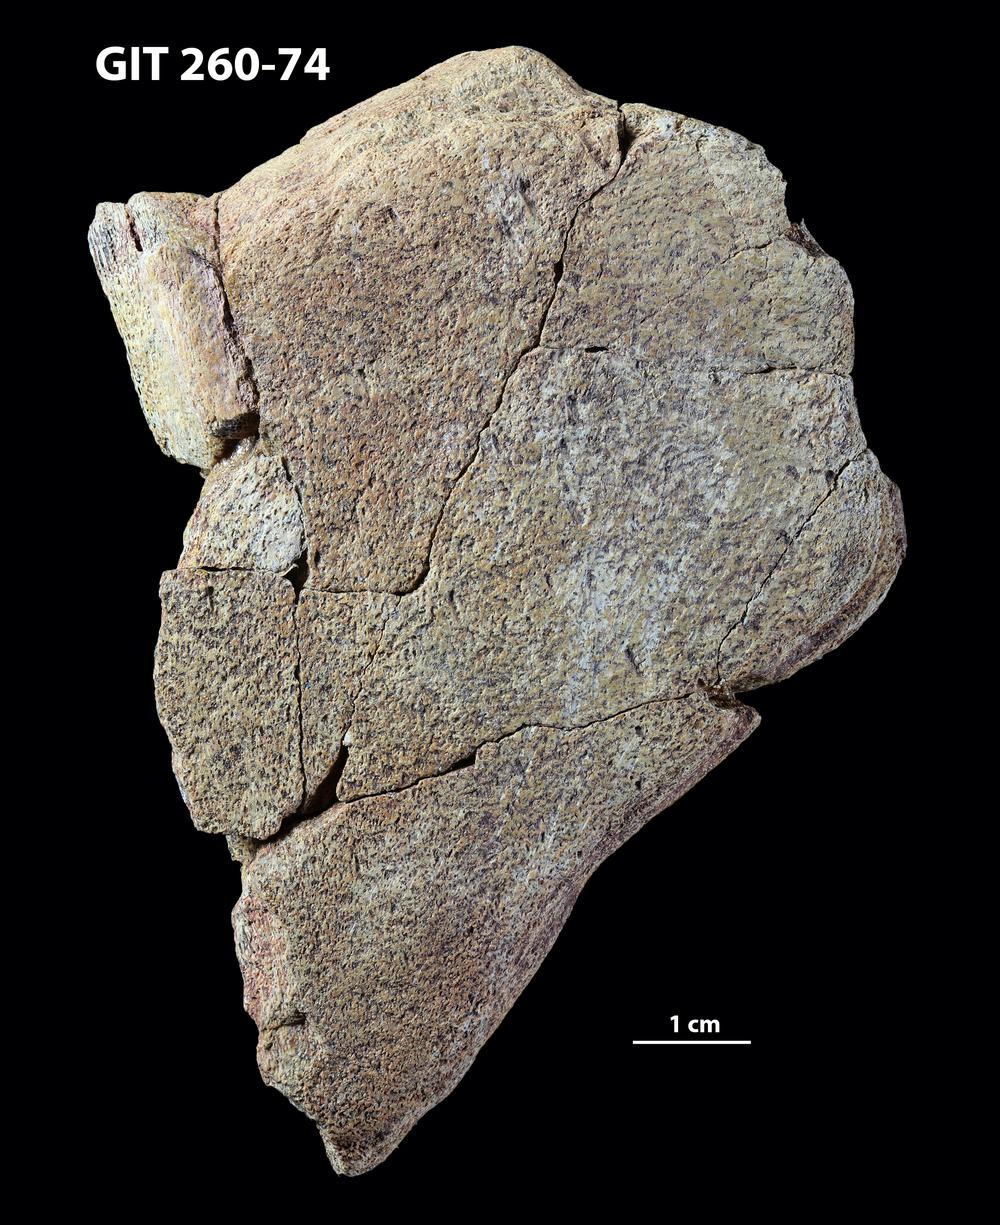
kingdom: Animalia
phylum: Chordata
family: Homostiidae
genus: Homostius
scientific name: Homostius
